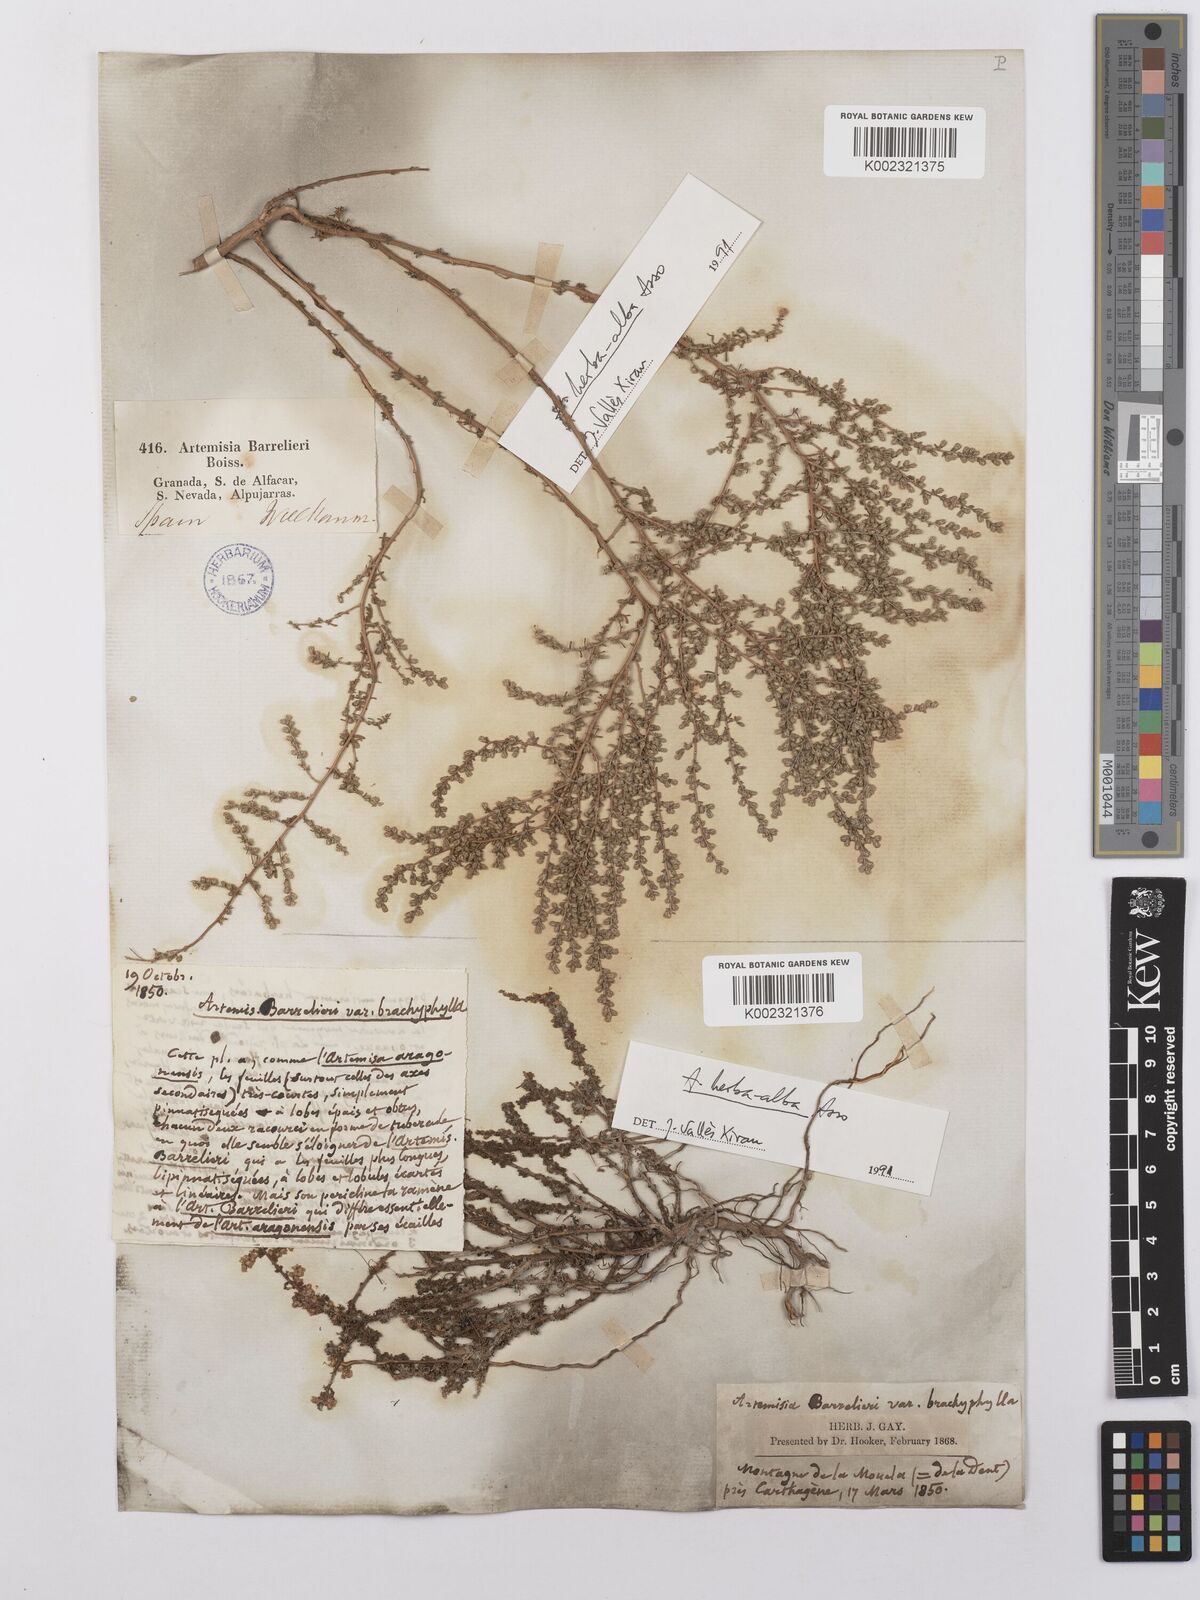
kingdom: Plantae
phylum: Tracheophyta
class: Magnoliopsida
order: Asterales
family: Asteraceae
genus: Artemisia
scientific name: Artemisia barrelieri
